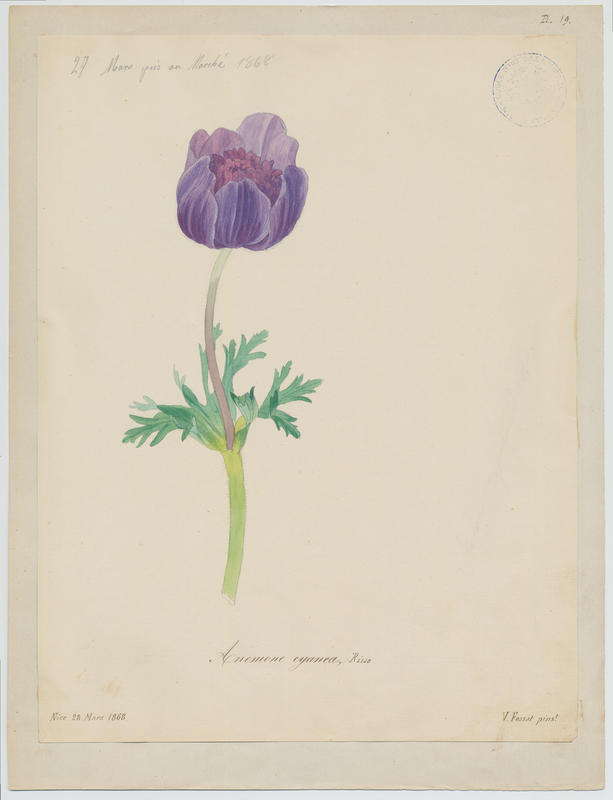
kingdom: Plantae
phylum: Tracheophyta
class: Magnoliopsida
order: Ranunculales
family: Ranunculaceae
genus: Anemone
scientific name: Anemone coronaria
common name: Poppy anemone
